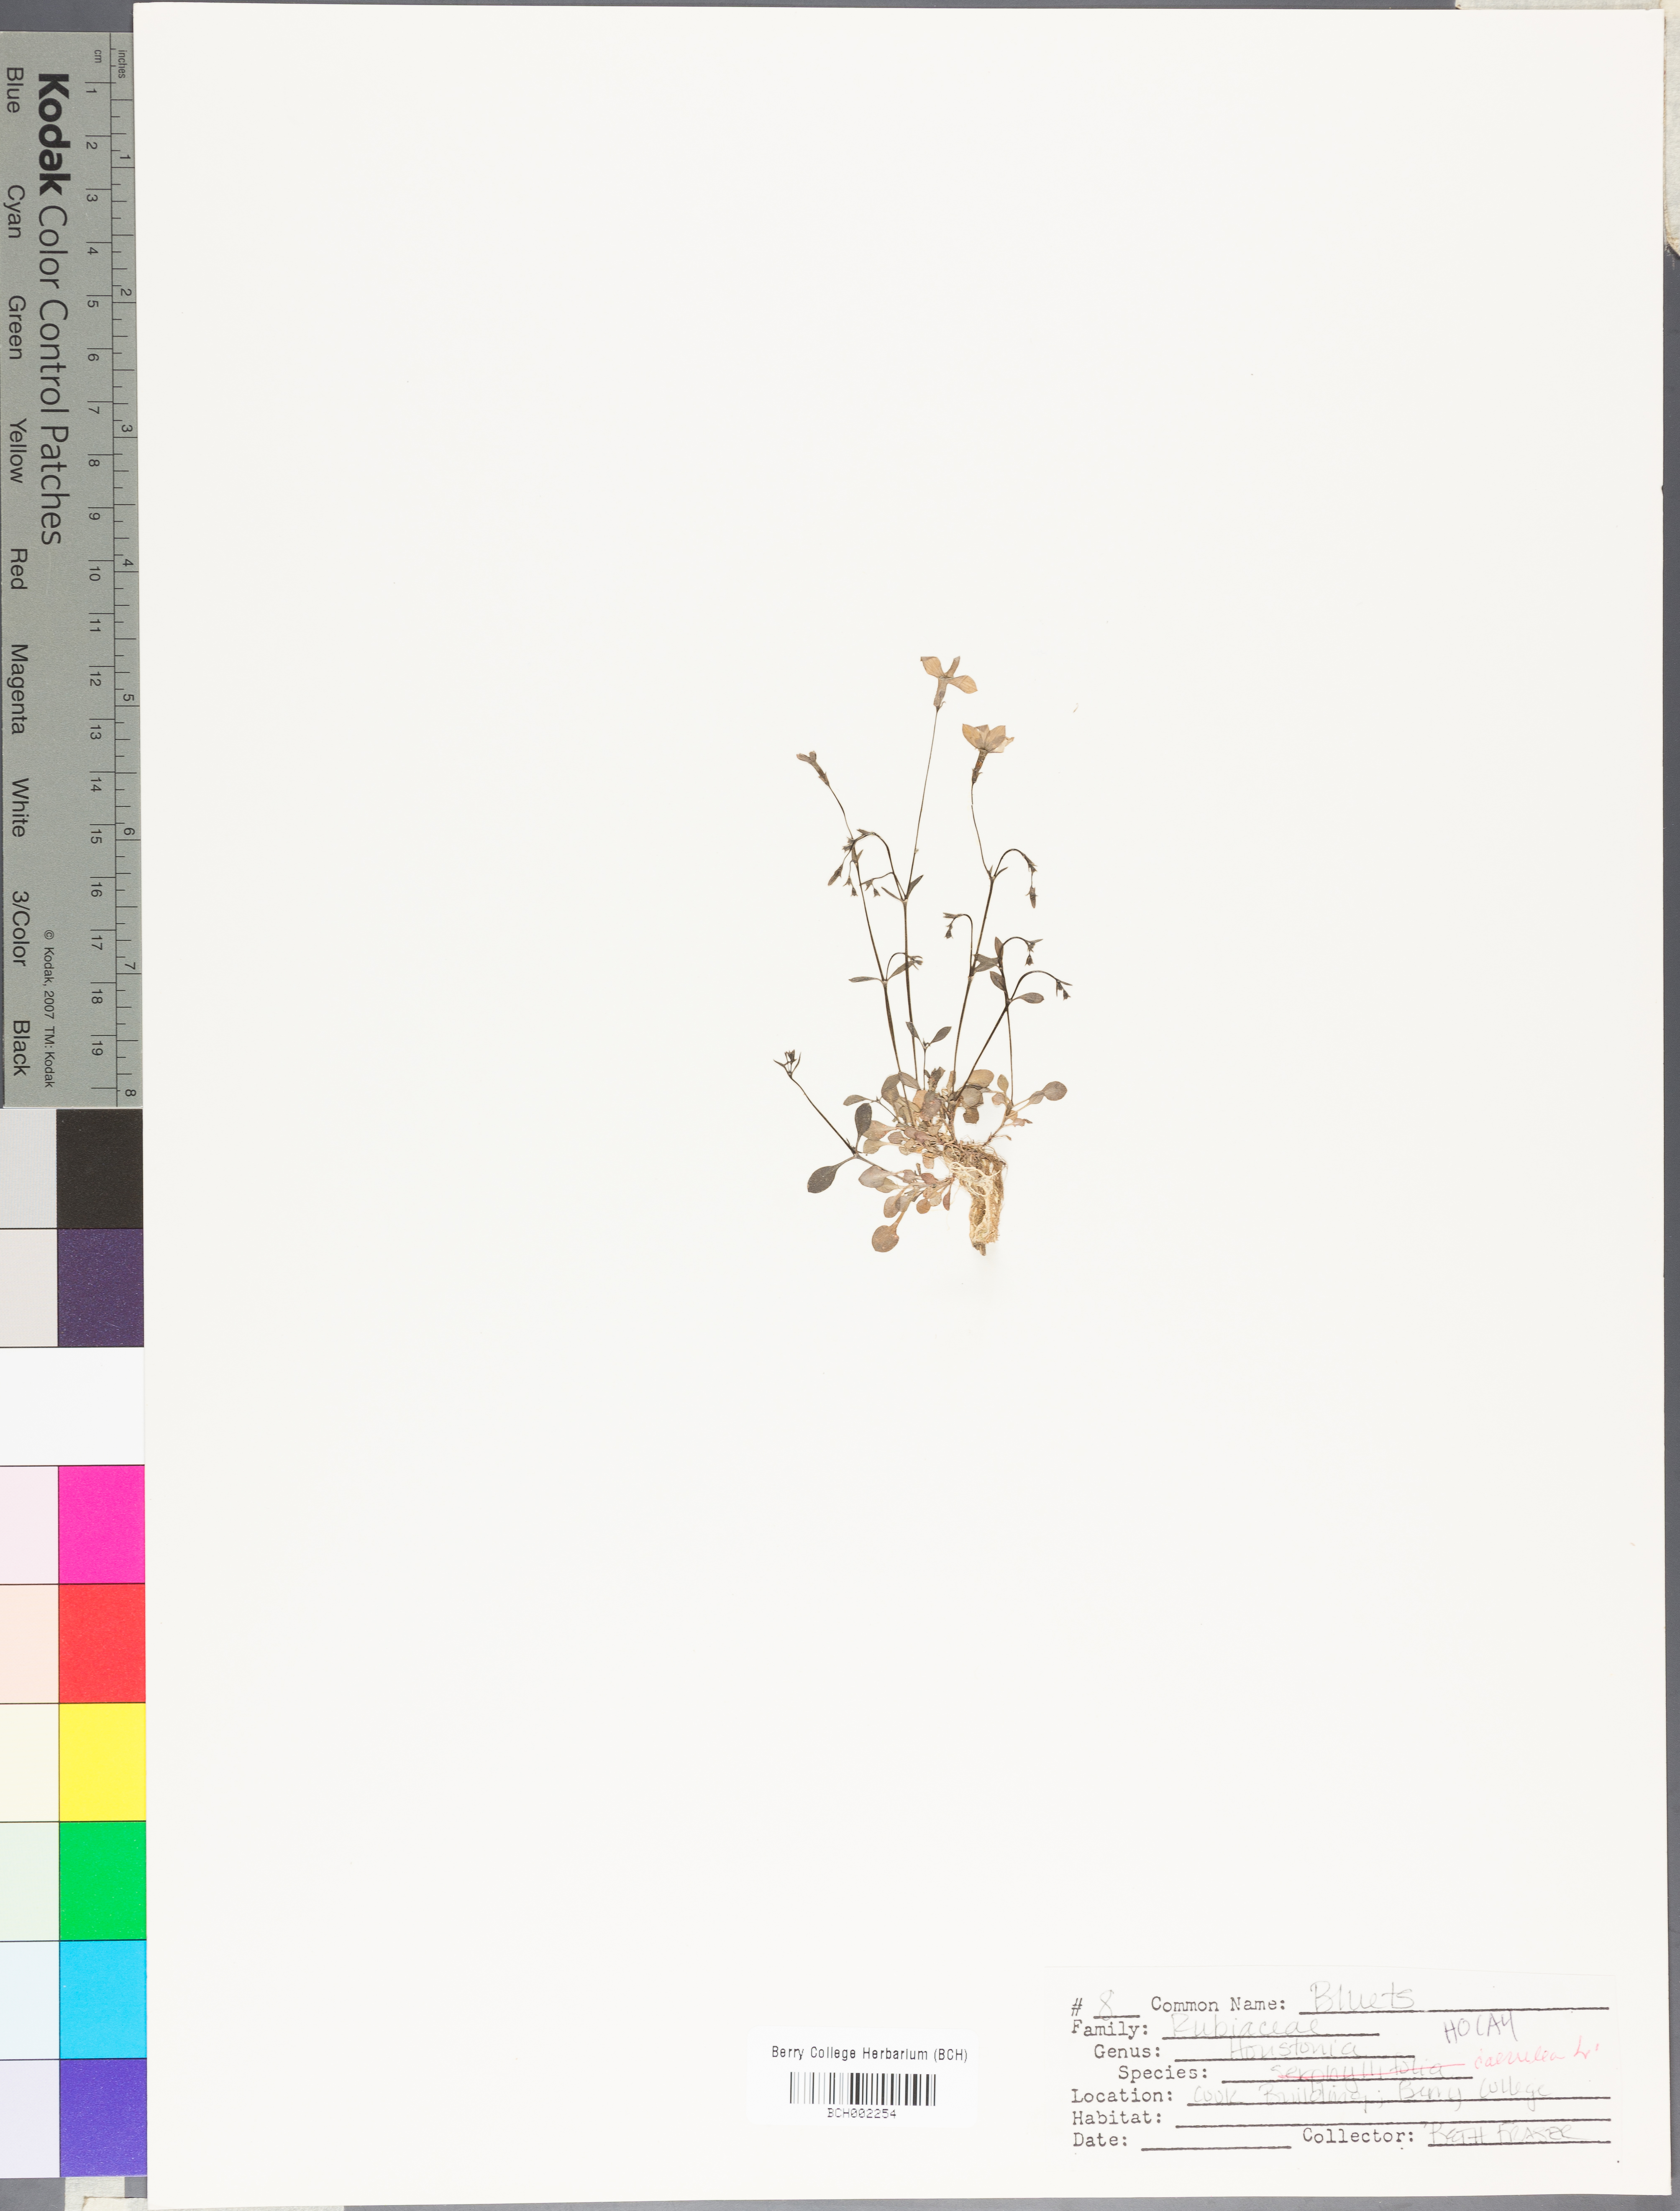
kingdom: Plantae
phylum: Tracheophyta
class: Magnoliopsida
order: Gentianales
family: Rubiaceae
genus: Houstonia
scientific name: Houstonia caerulea
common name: Bluets
